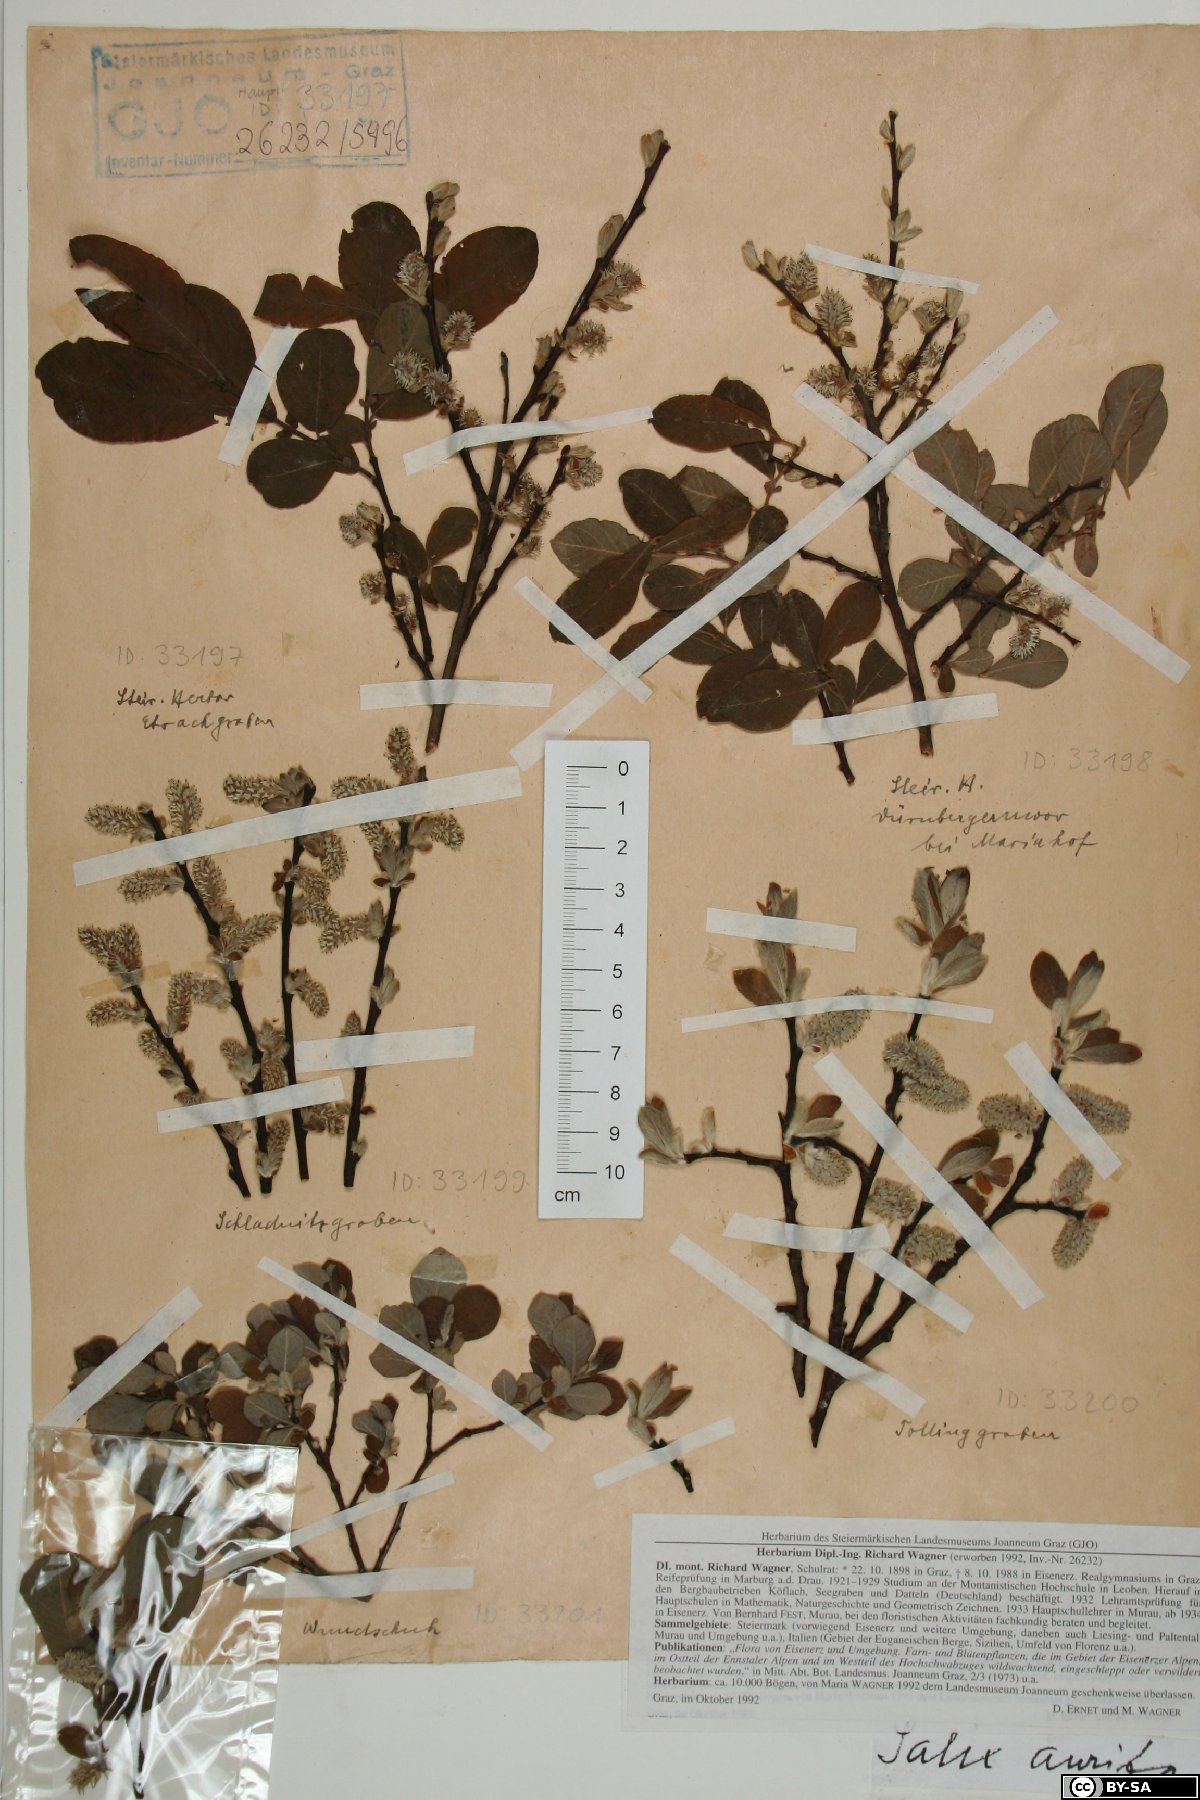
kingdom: Plantae
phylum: Tracheophyta
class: Magnoliopsida
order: Malpighiales
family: Salicaceae
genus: Salix
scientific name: Salix aurita
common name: Eared willow
